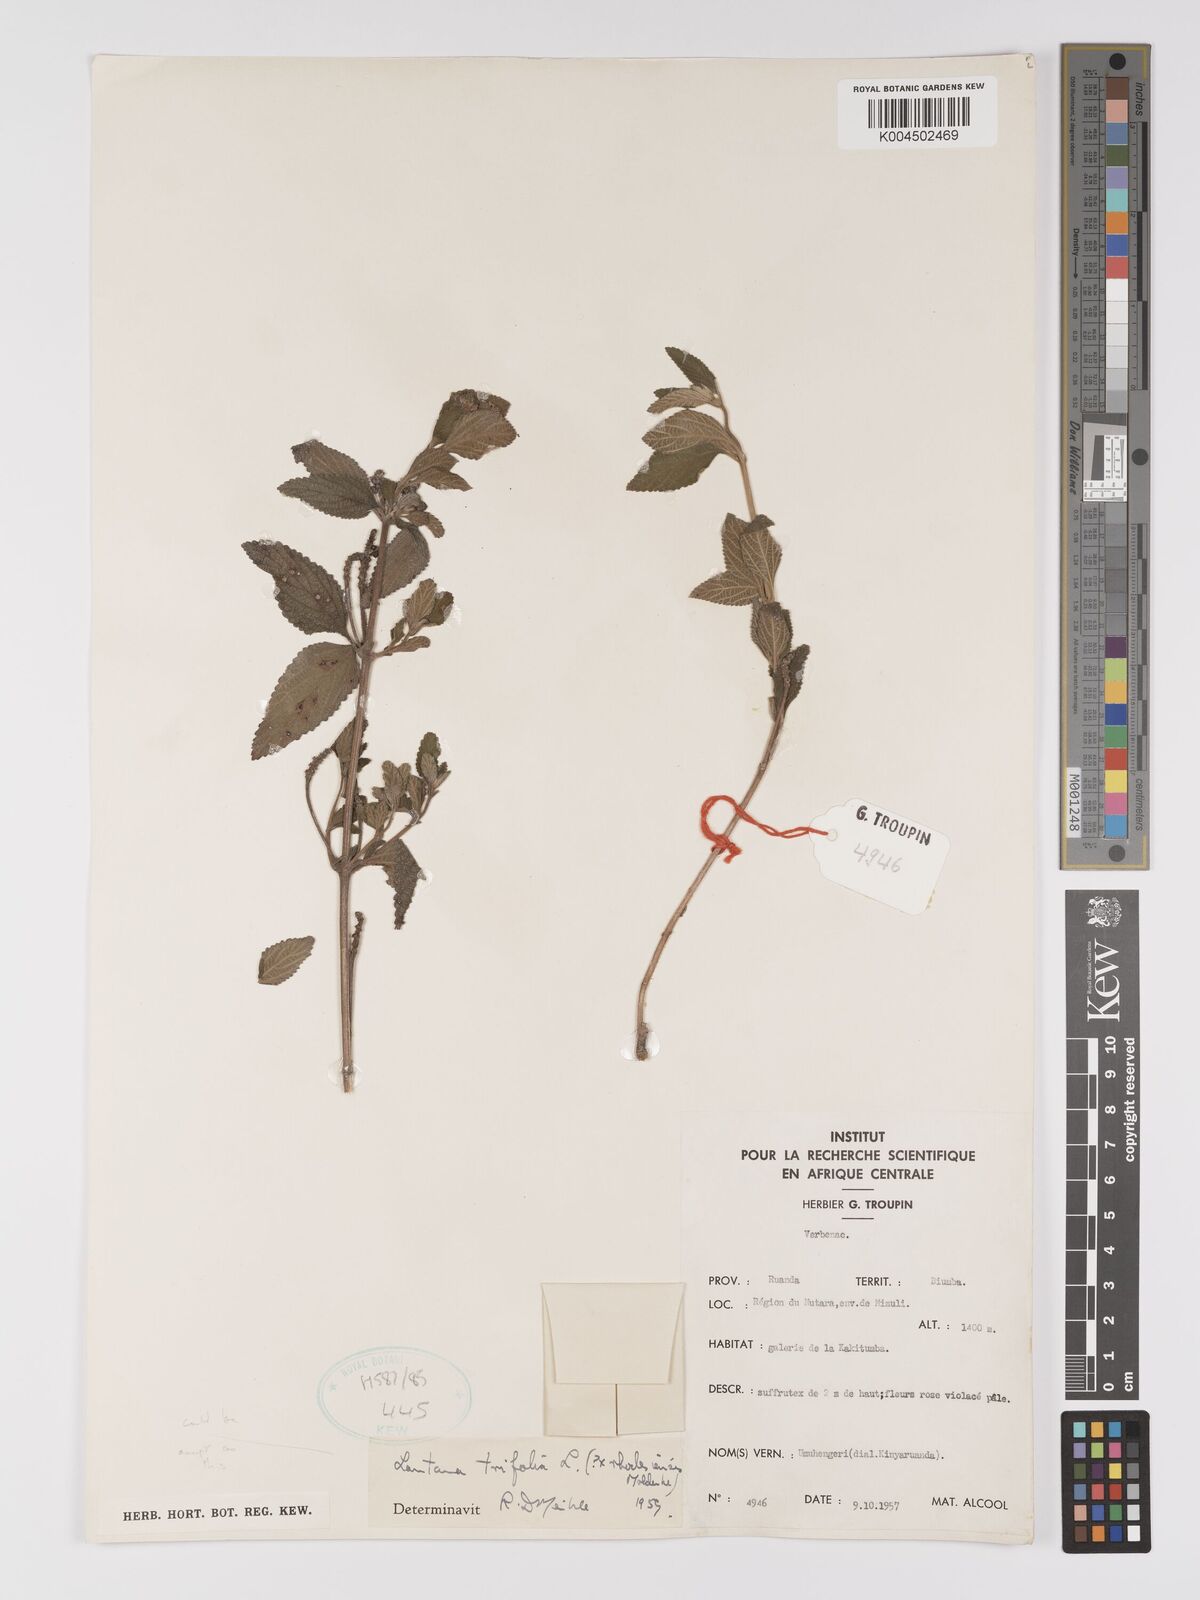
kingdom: Plantae
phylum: Tracheophyta
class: Magnoliopsida
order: Lamiales
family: Verbenaceae
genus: Lantana
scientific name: Lantana ukambensis
